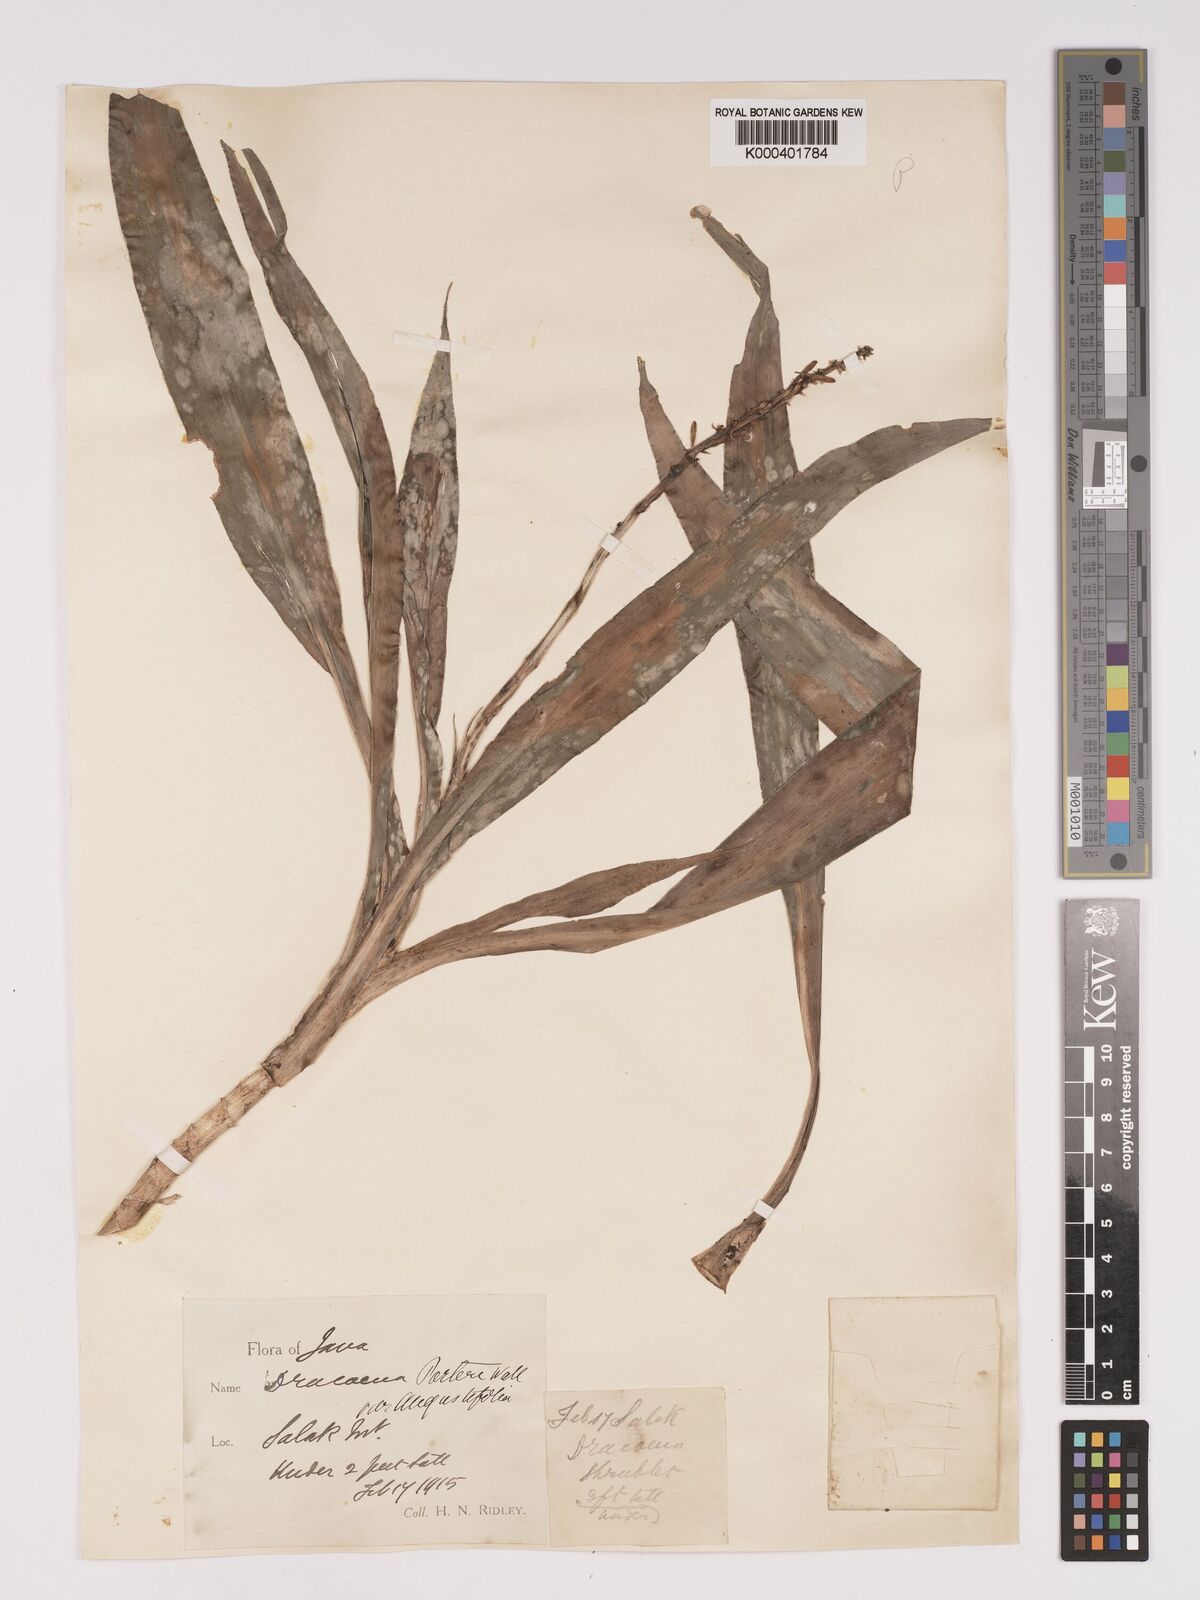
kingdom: Plantae
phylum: Tracheophyta
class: Liliopsida
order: Asparagales
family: Asparagaceae
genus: Dracaena
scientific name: Dracaena porteri
